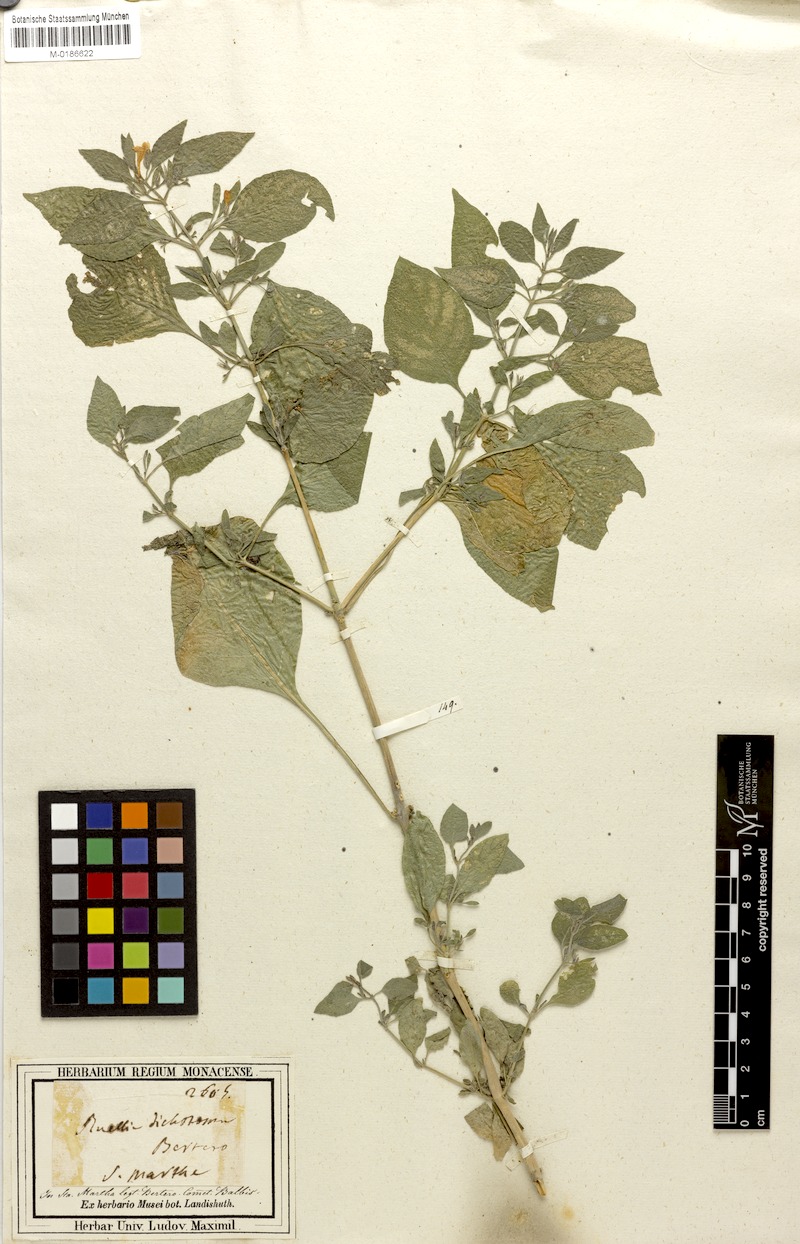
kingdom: Plantae
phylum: Tracheophyta
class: Magnoliopsida
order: Lamiales
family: Acanthaceae
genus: Ruellia
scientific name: Ruellia paniculata
